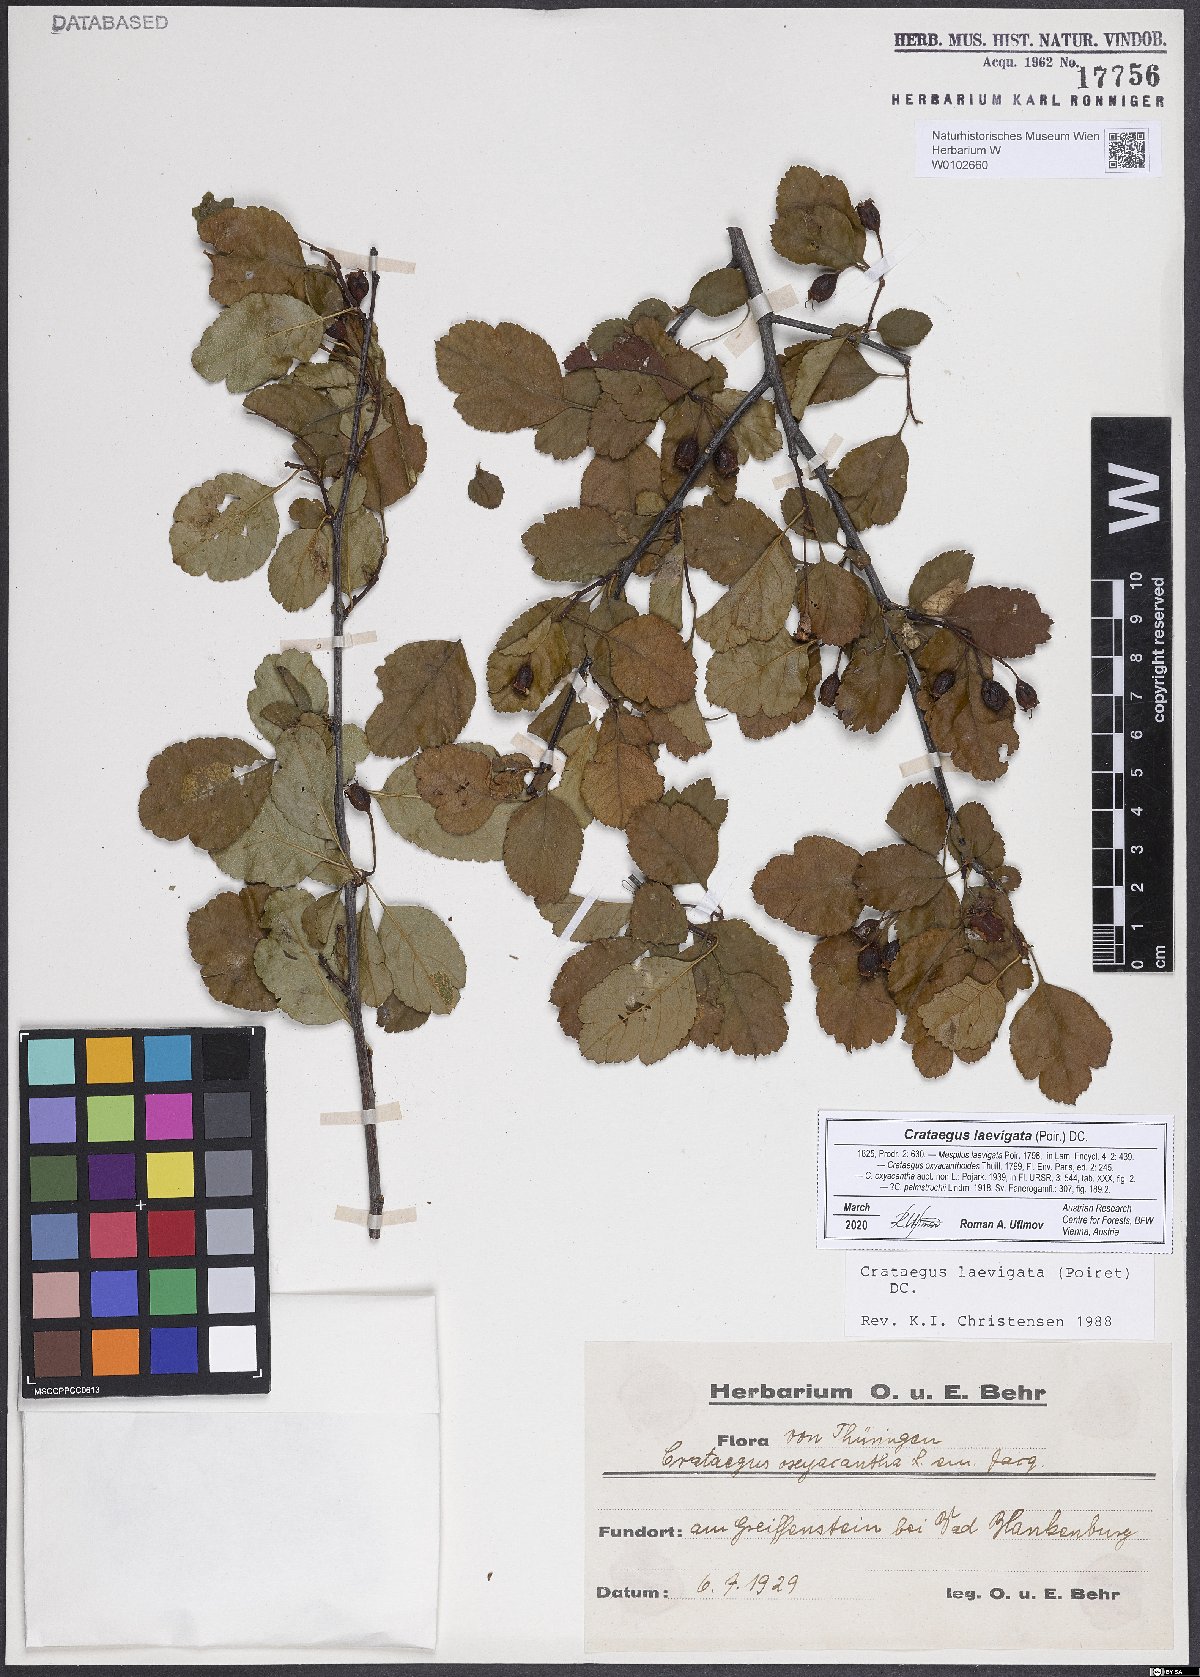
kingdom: Plantae
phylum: Tracheophyta
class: Magnoliopsida
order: Rosales
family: Rosaceae
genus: Crataegus
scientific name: Crataegus laevigata
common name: Midland hawthorn
